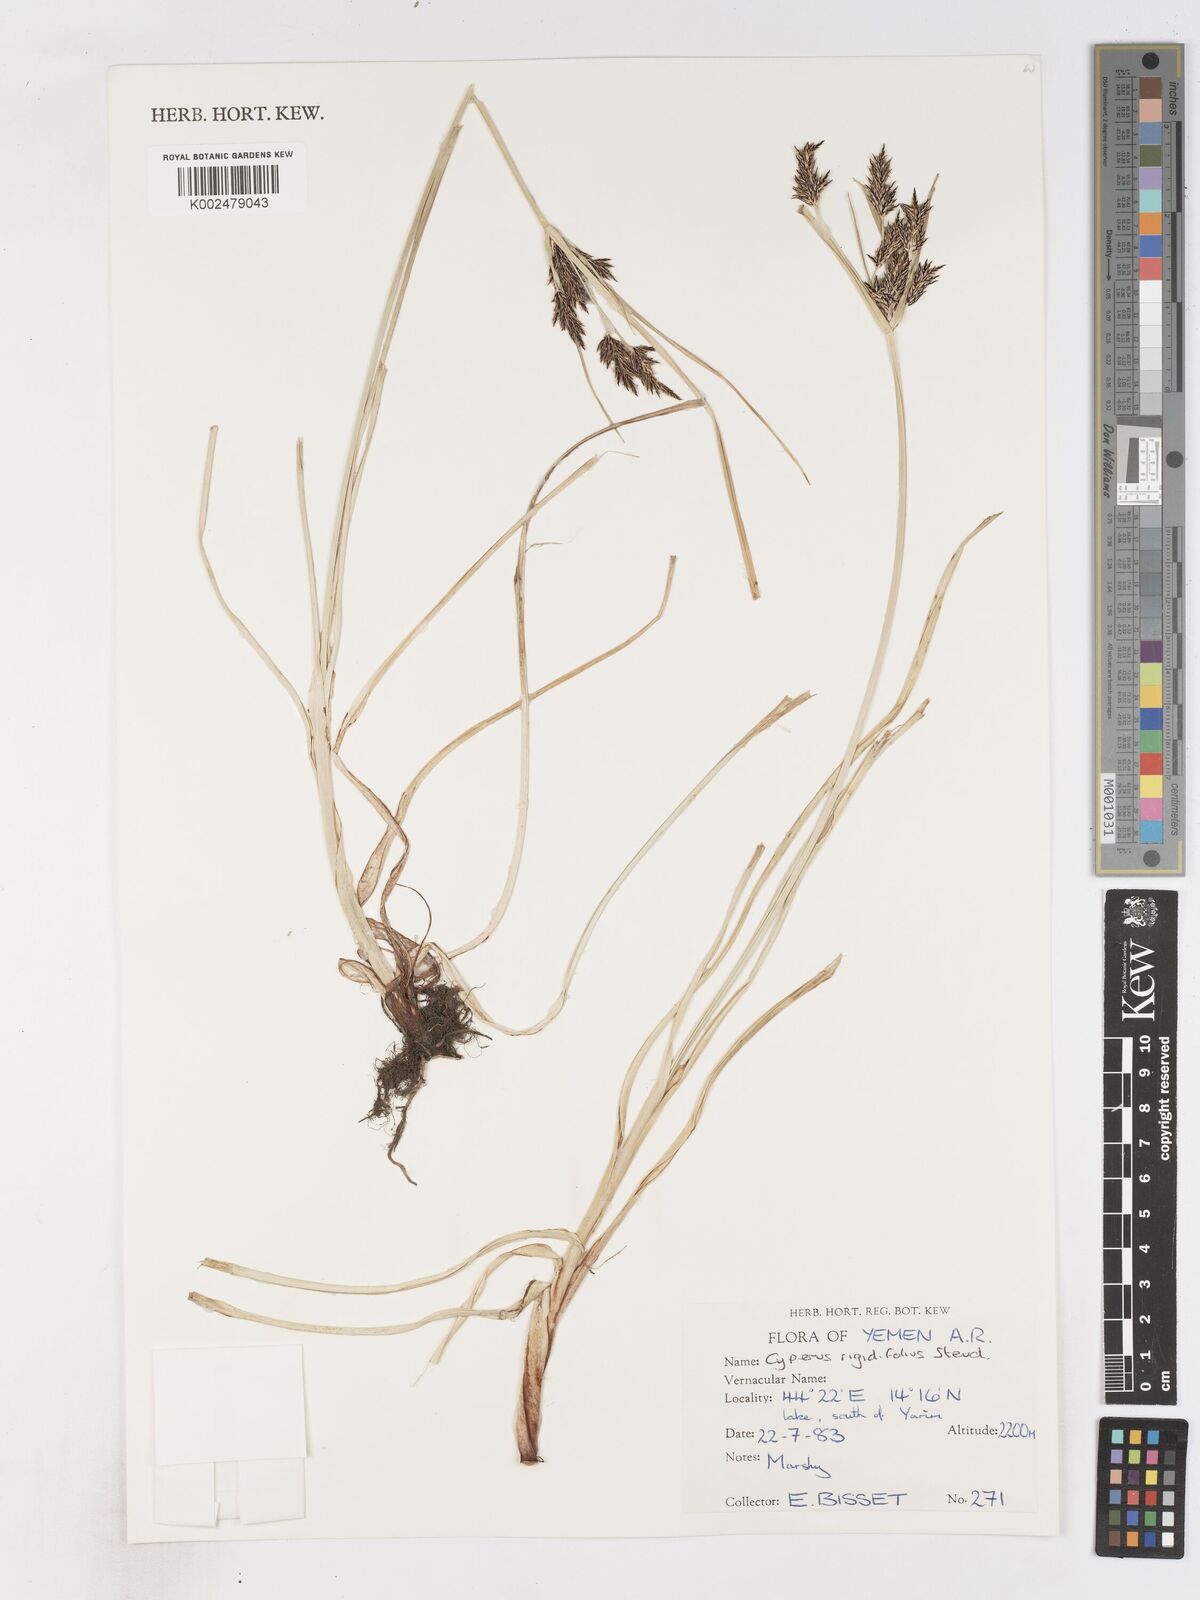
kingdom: Plantae
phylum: Tracheophyta
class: Liliopsida
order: Poales
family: Cyperaceae
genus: Cyperus
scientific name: Cyperus rigidifolius
